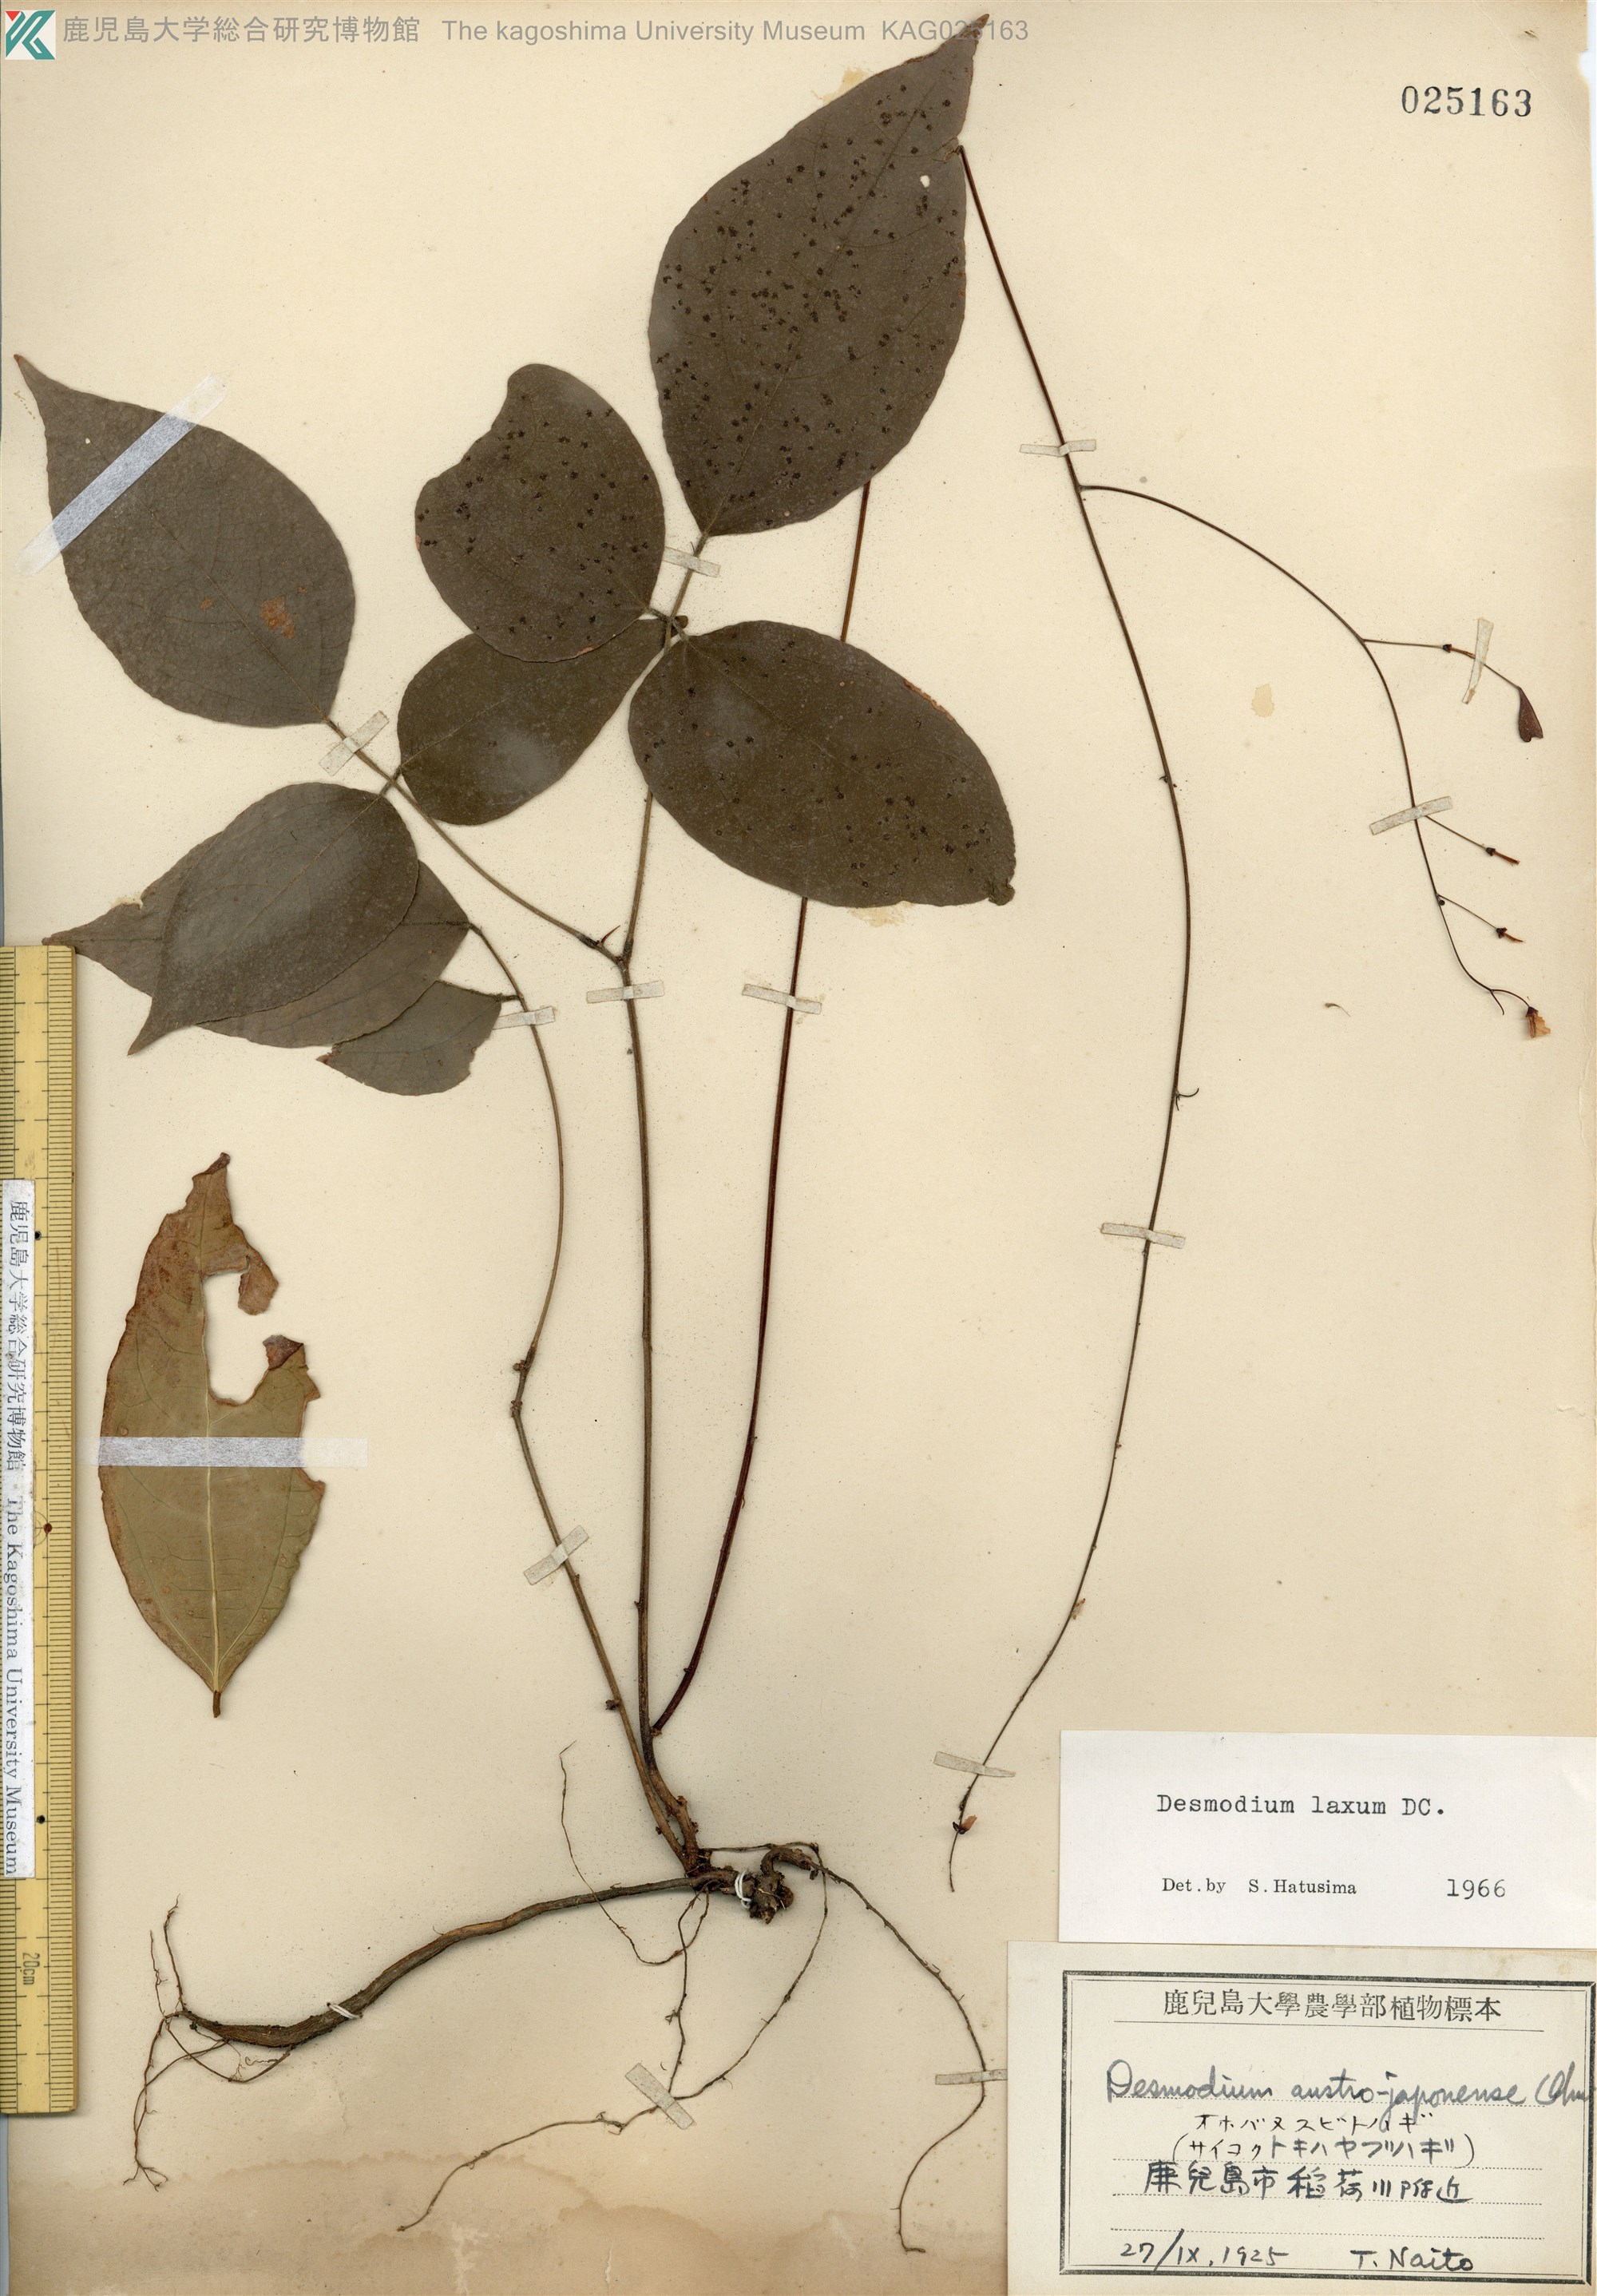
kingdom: Plantae
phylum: Tracheophyta
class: Magnoliopsida
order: Fabales
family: Fabaceae
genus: Desmodium
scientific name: Desmodium laxum
